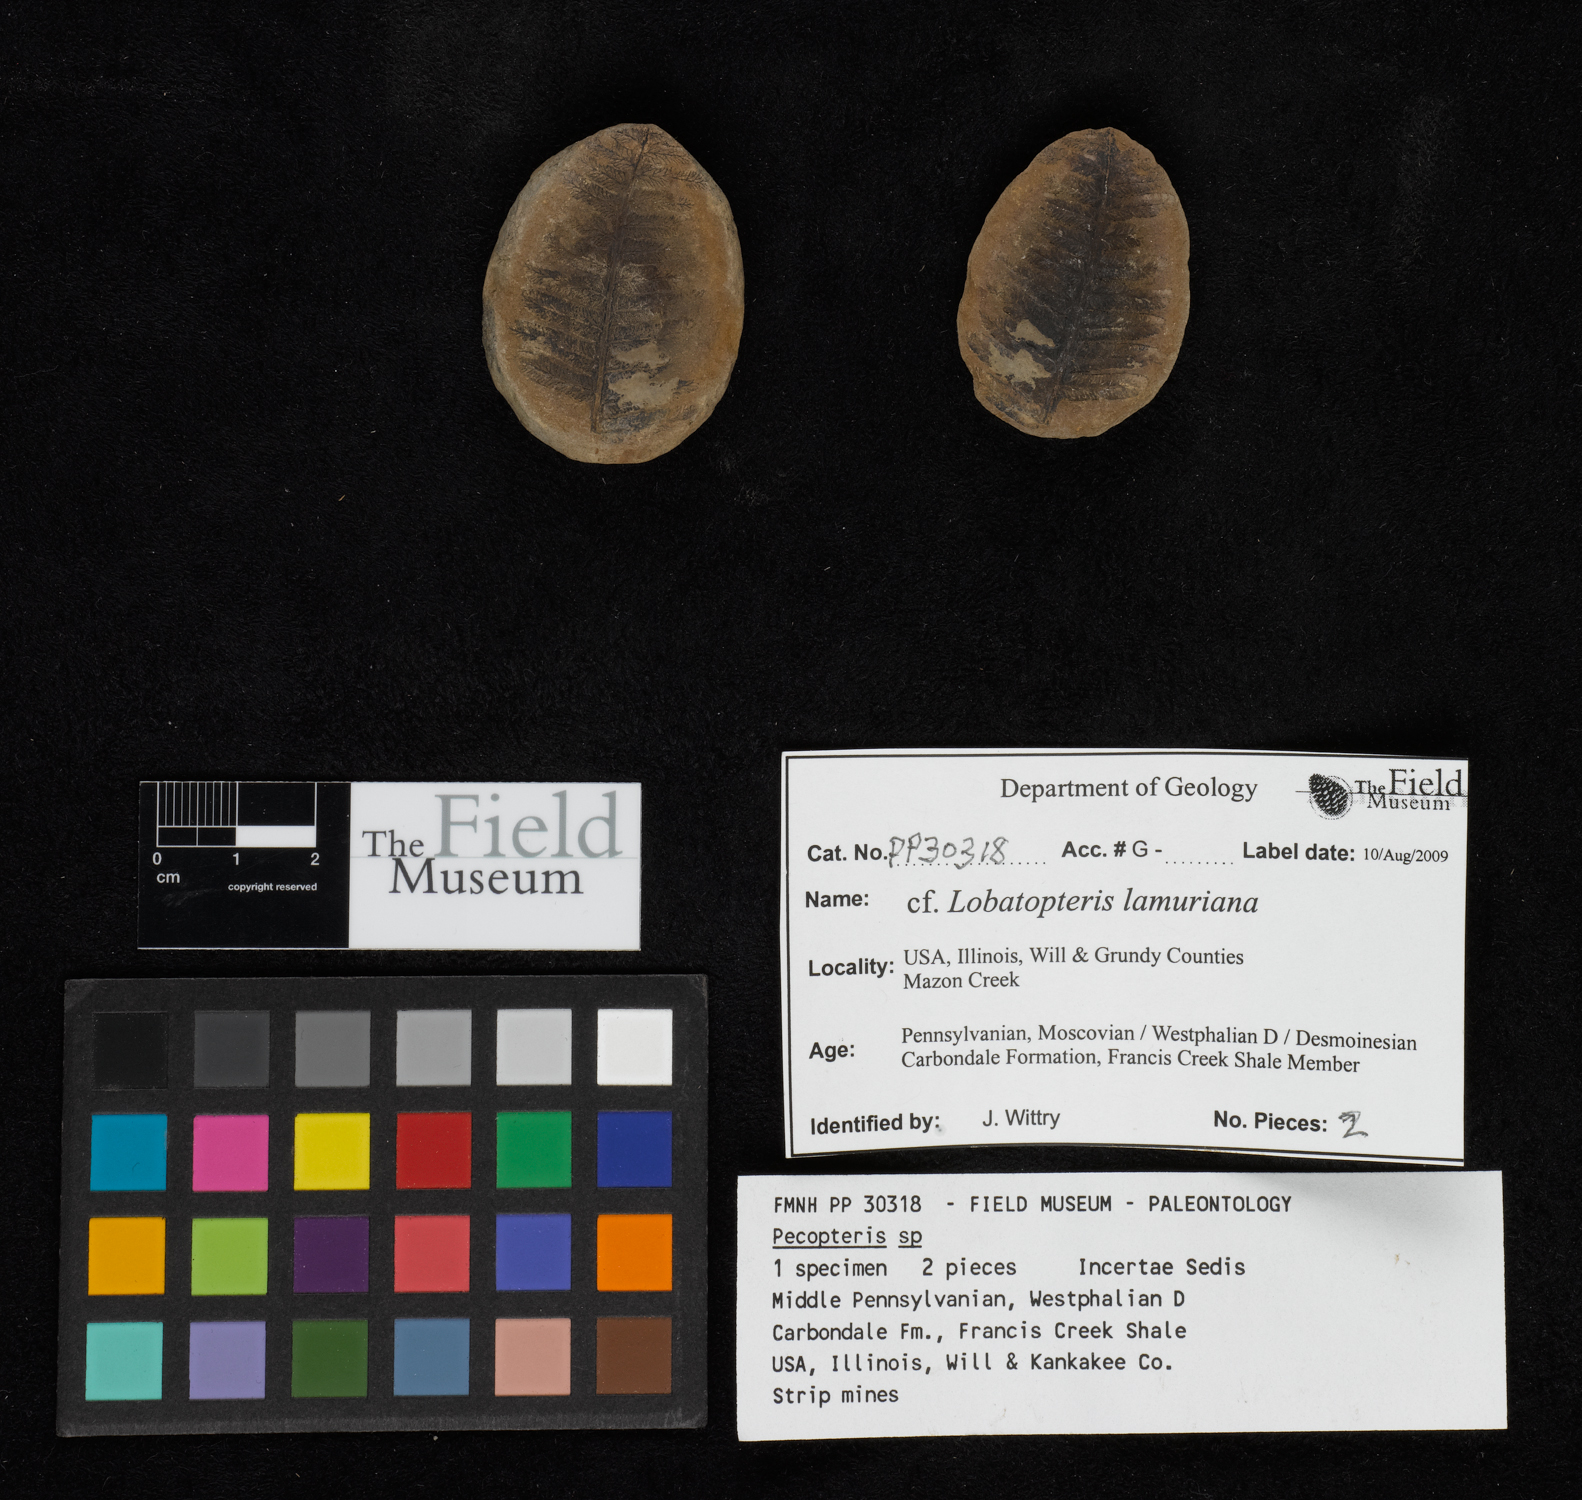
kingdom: Plantae
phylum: Tracheophyta
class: Polypodiopsida
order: Marattiales
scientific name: Marattiales
